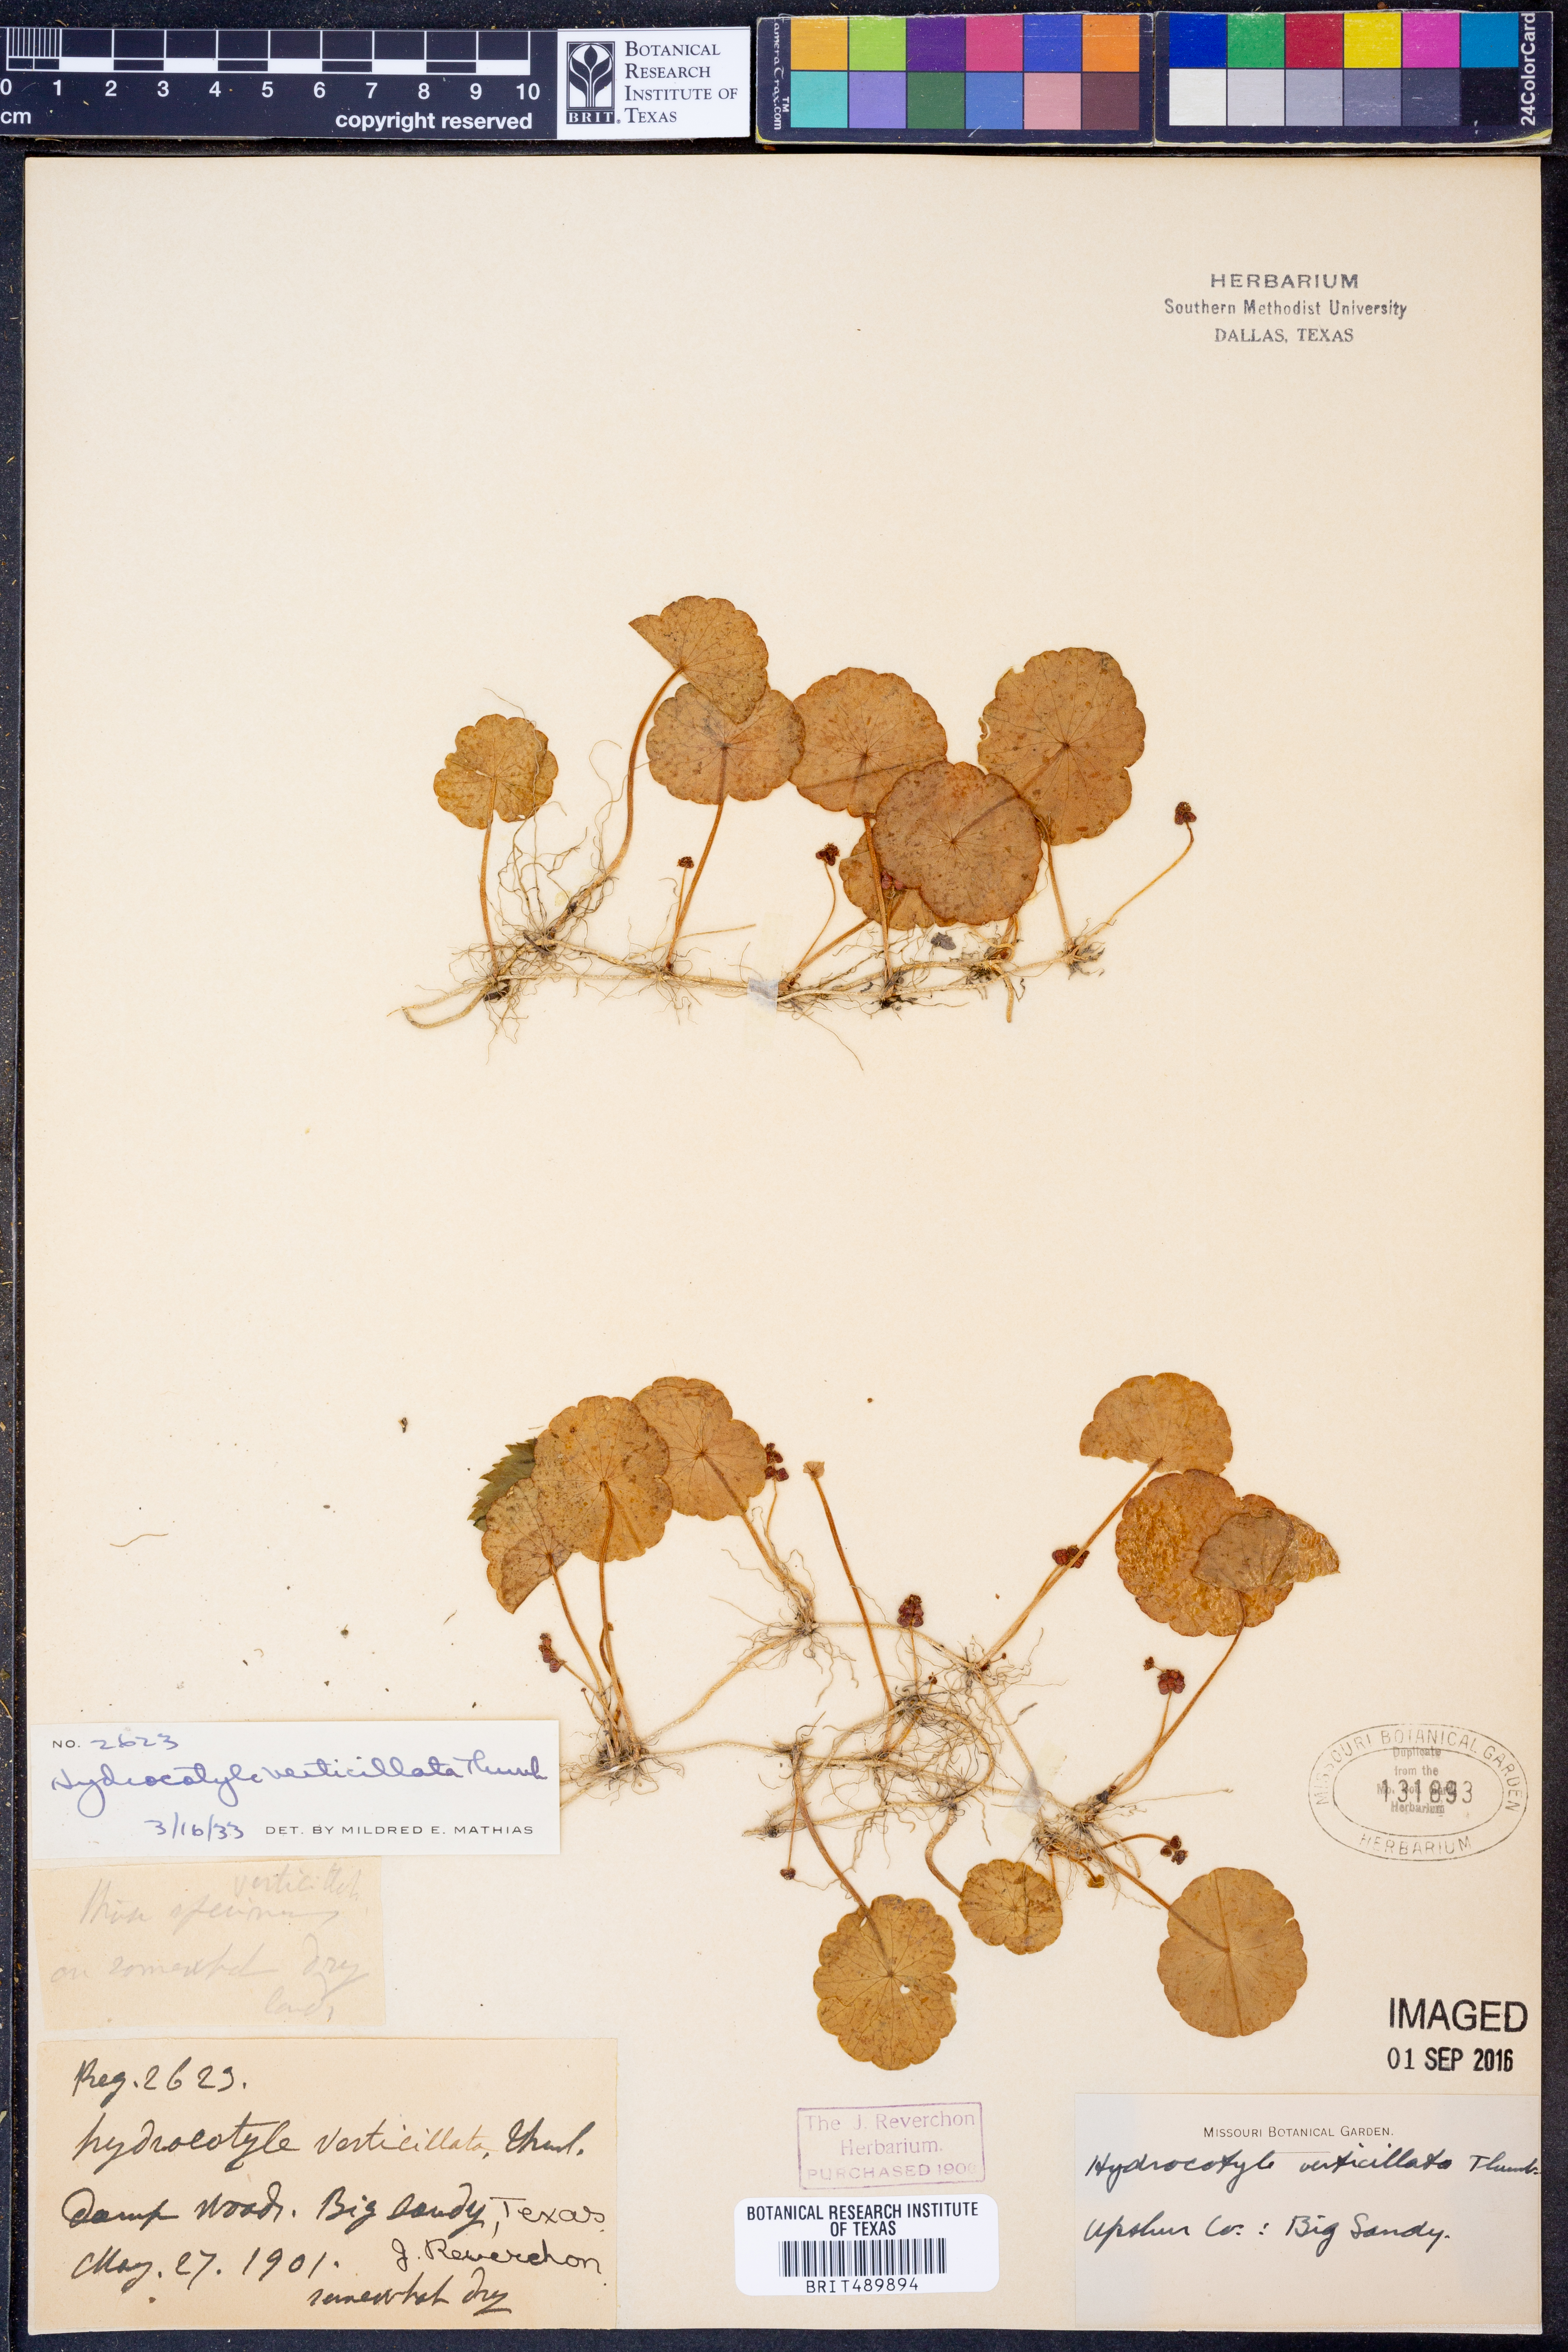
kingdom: Plantae
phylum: Tracheophyta
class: Magnoliopsida
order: Apiales
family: Araliaceae
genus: Hydrocotyle
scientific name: Hydrocotyle verticillata
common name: Whorled marshpennywort
